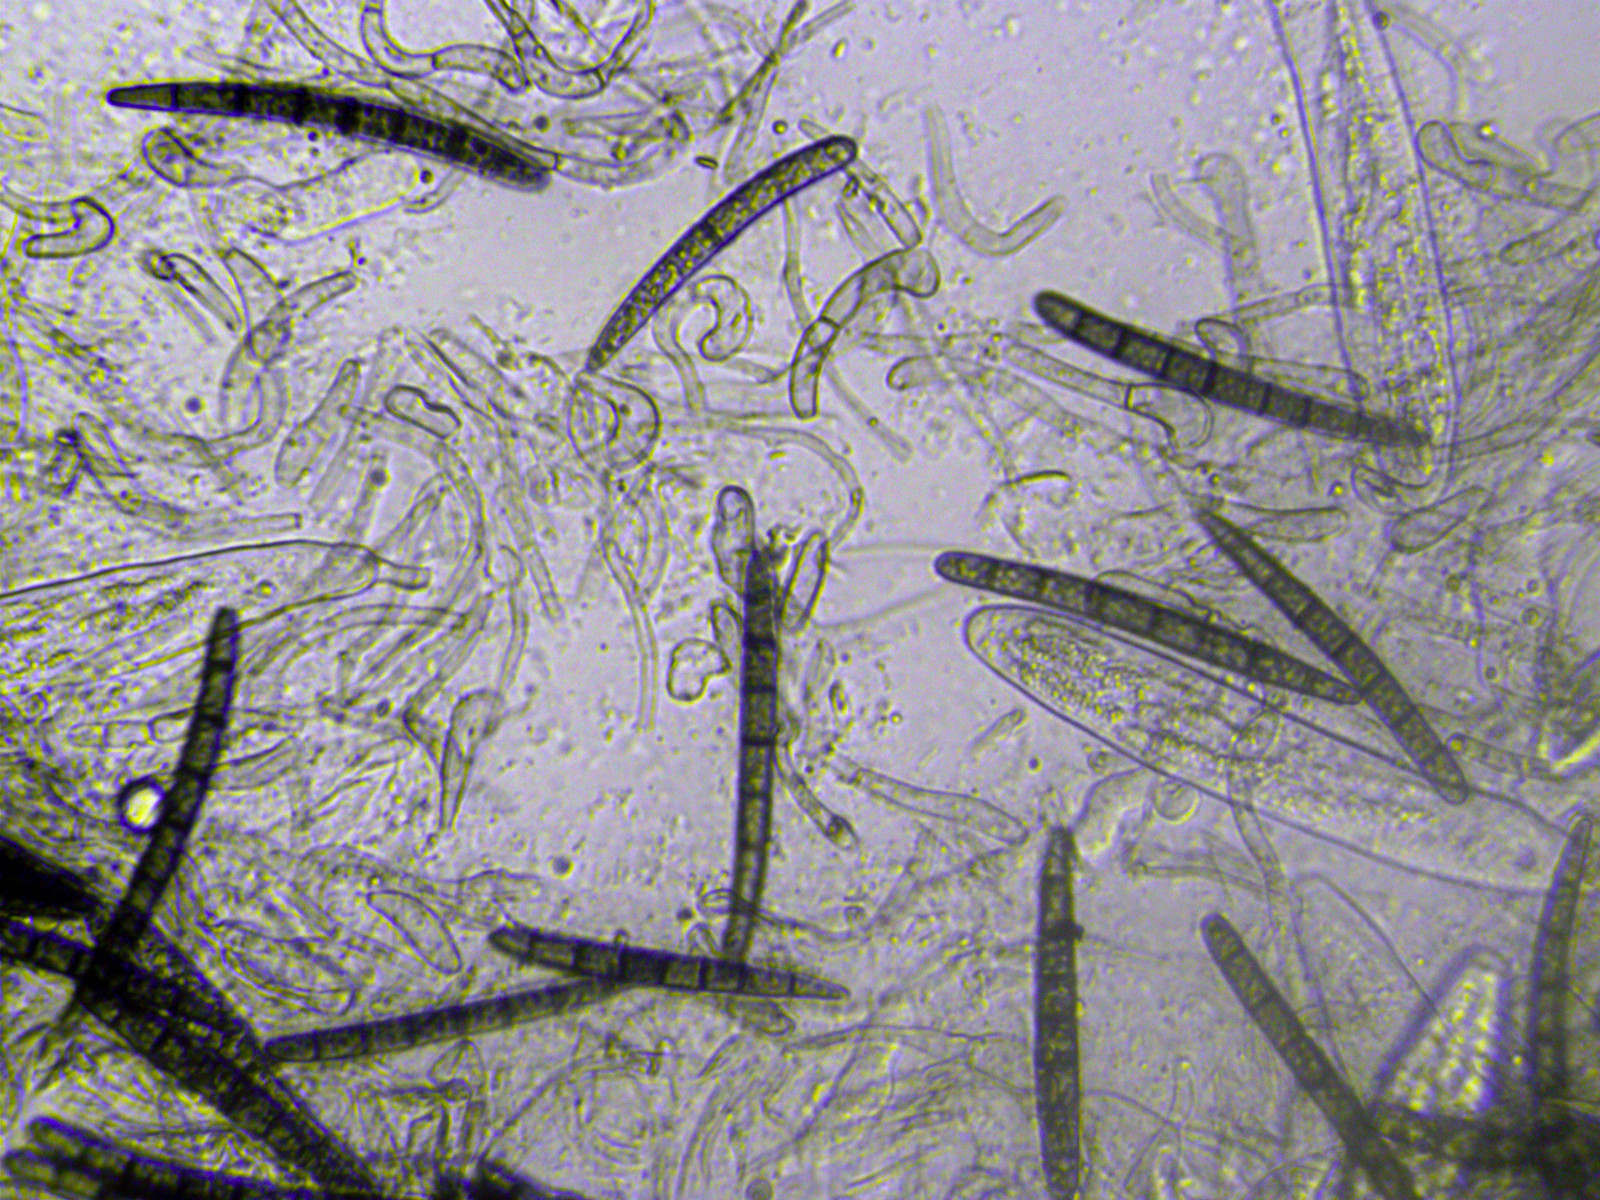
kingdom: Fungi
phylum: Ascomycota
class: Geoglossomycetes
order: Geoglossales
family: Geoglossaceae
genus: Geoglossum
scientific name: Geoglossum umbratile
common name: slank jordtunge
